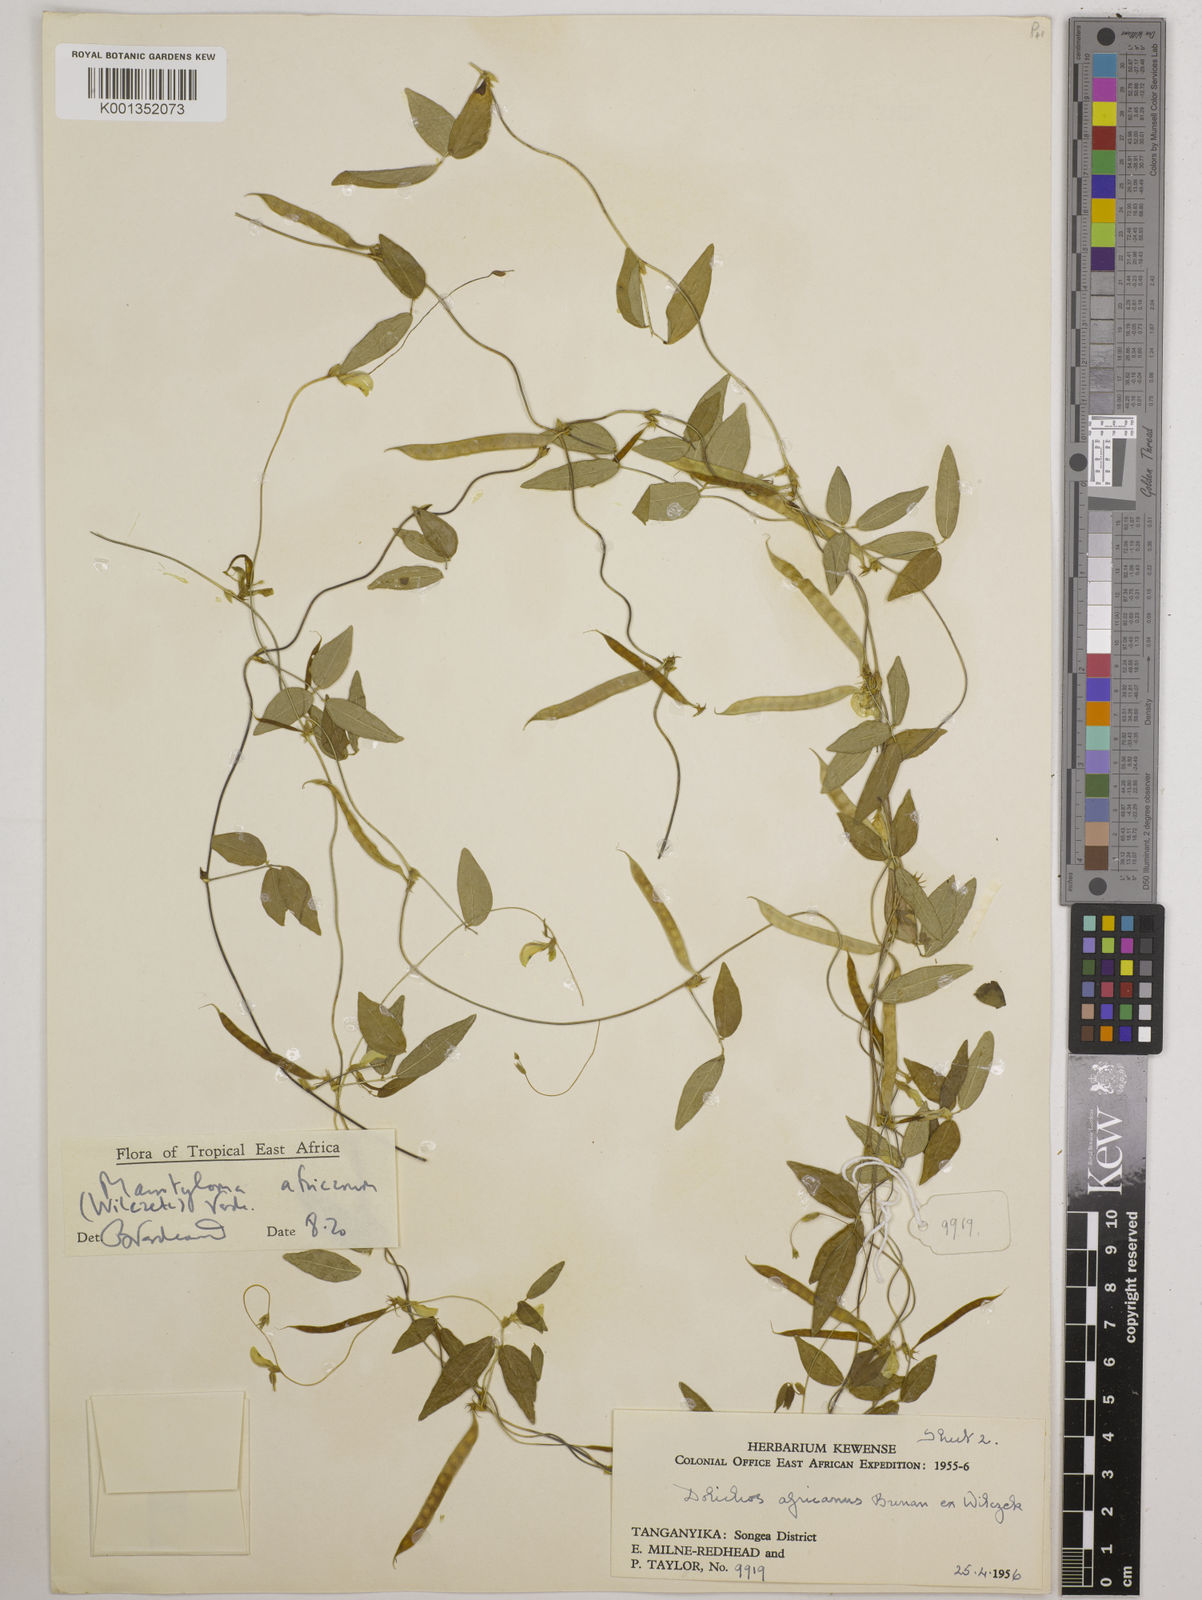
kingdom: Plantae
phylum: Tracheophyta
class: Magnoliopsida
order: Fabales
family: Fabaceae
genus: Macrotyloma
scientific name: Macrotyloma africanum
